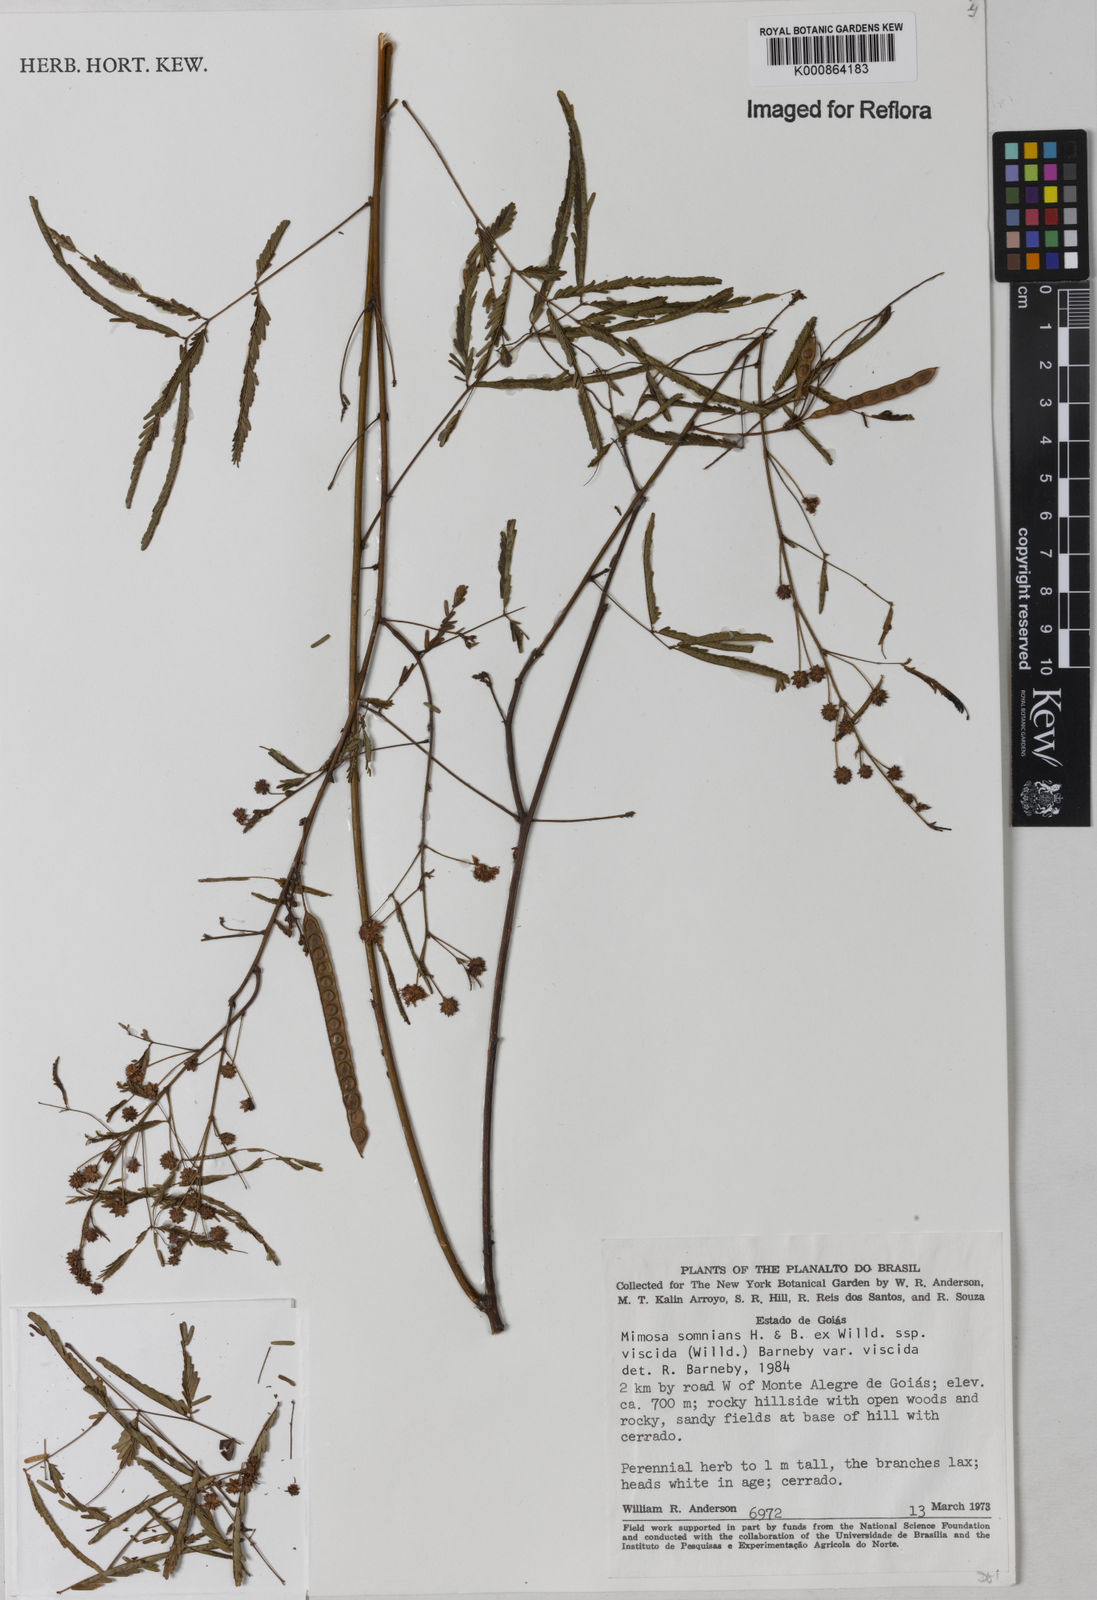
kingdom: Plantae
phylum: Tracheophyta
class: Magnoliopsida
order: Fabales
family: Fabaceae
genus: Mimosa
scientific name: Mimosa somnians
